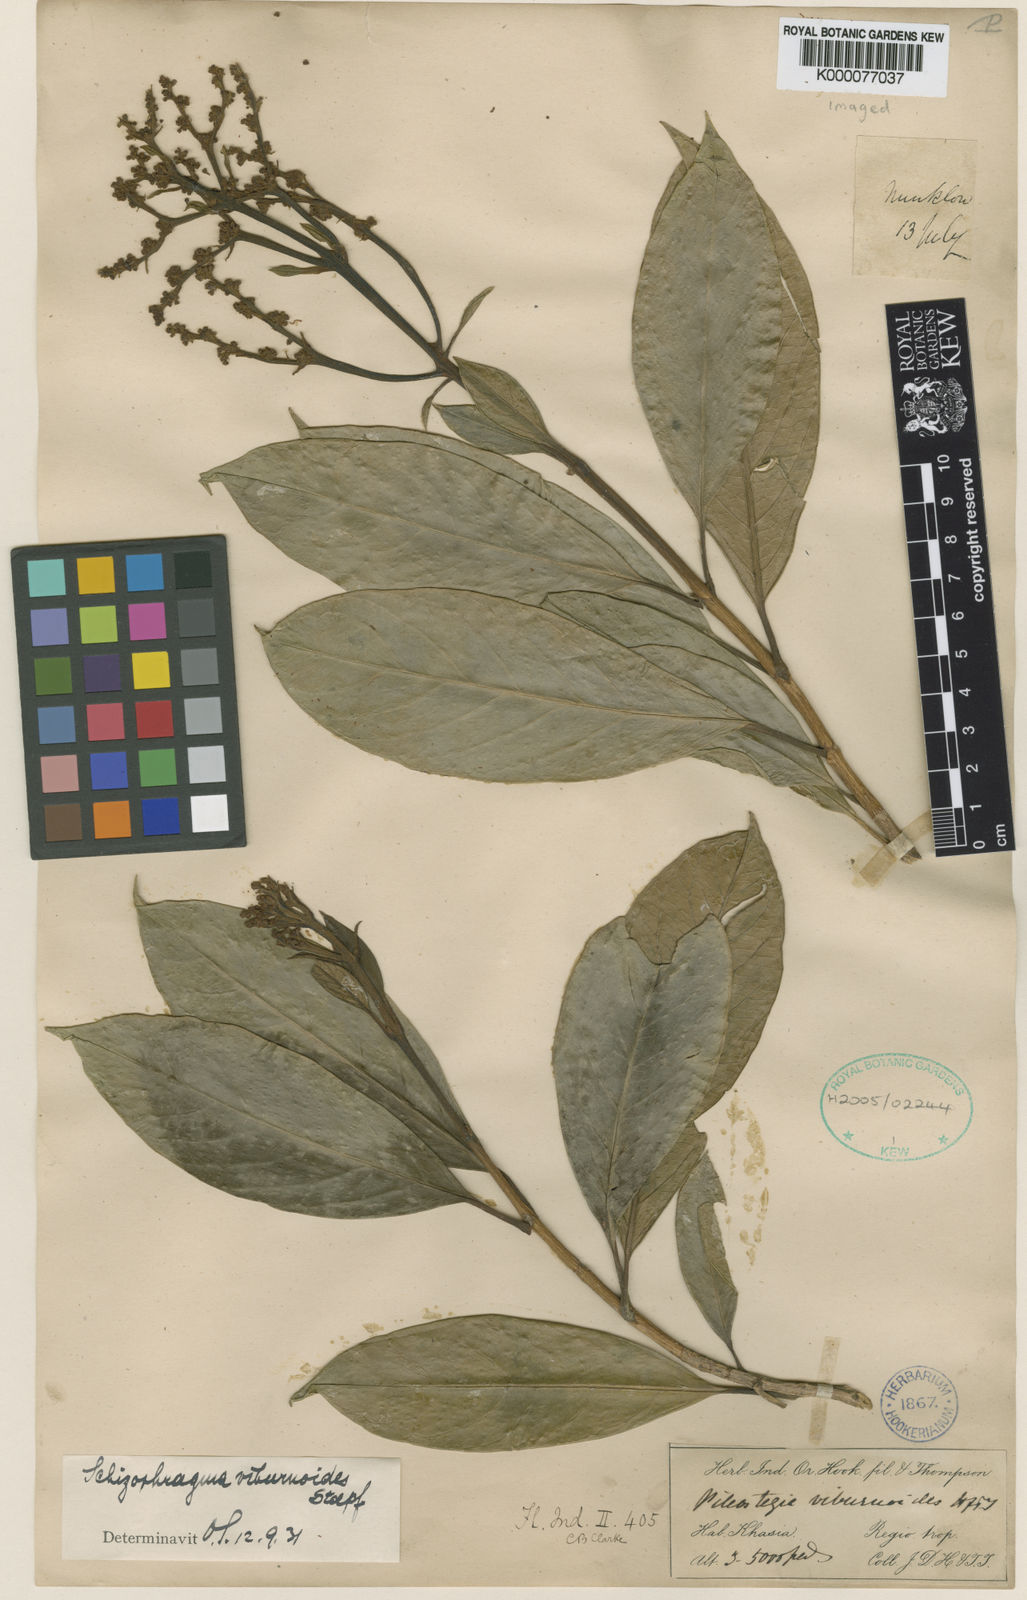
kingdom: Plantae
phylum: Tracheophyta
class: Magnoliopsida
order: Cornales
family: Hydrangeaceae
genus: Hydrangea
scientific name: Hydrangea viburnoides
